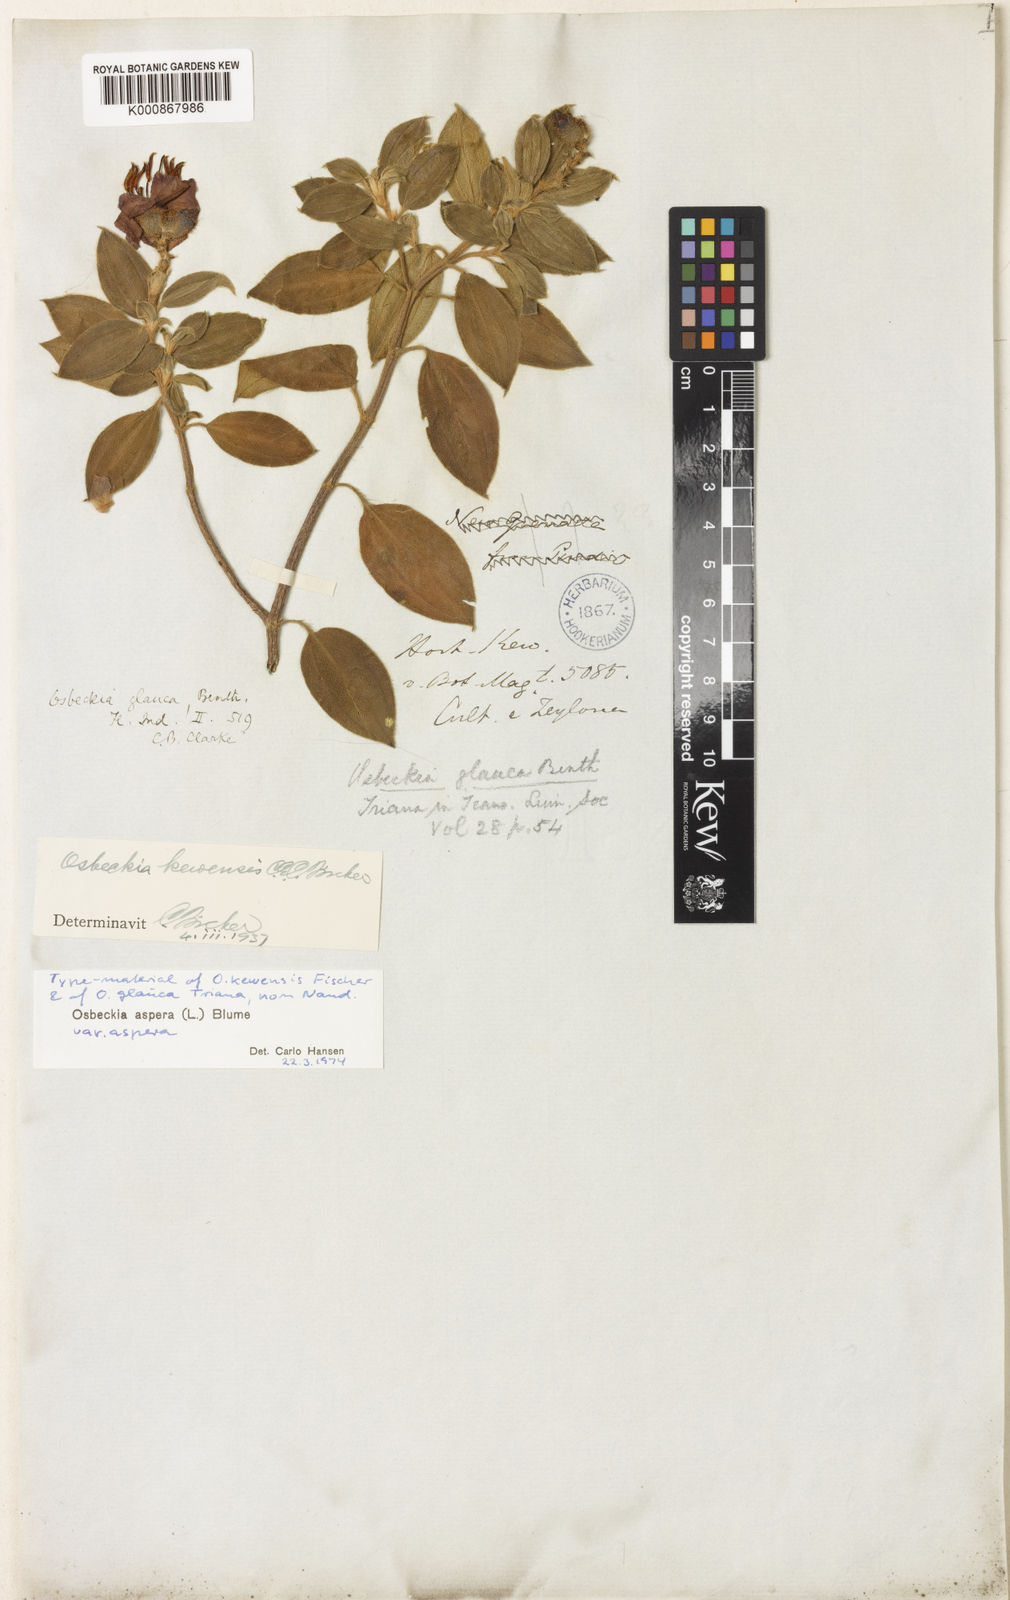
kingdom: Plantae
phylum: Tracheophyta
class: Magnoliopsida
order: Myrtales
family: Melastomataceae
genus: Osbeckia
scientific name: Osbeckia aspera
